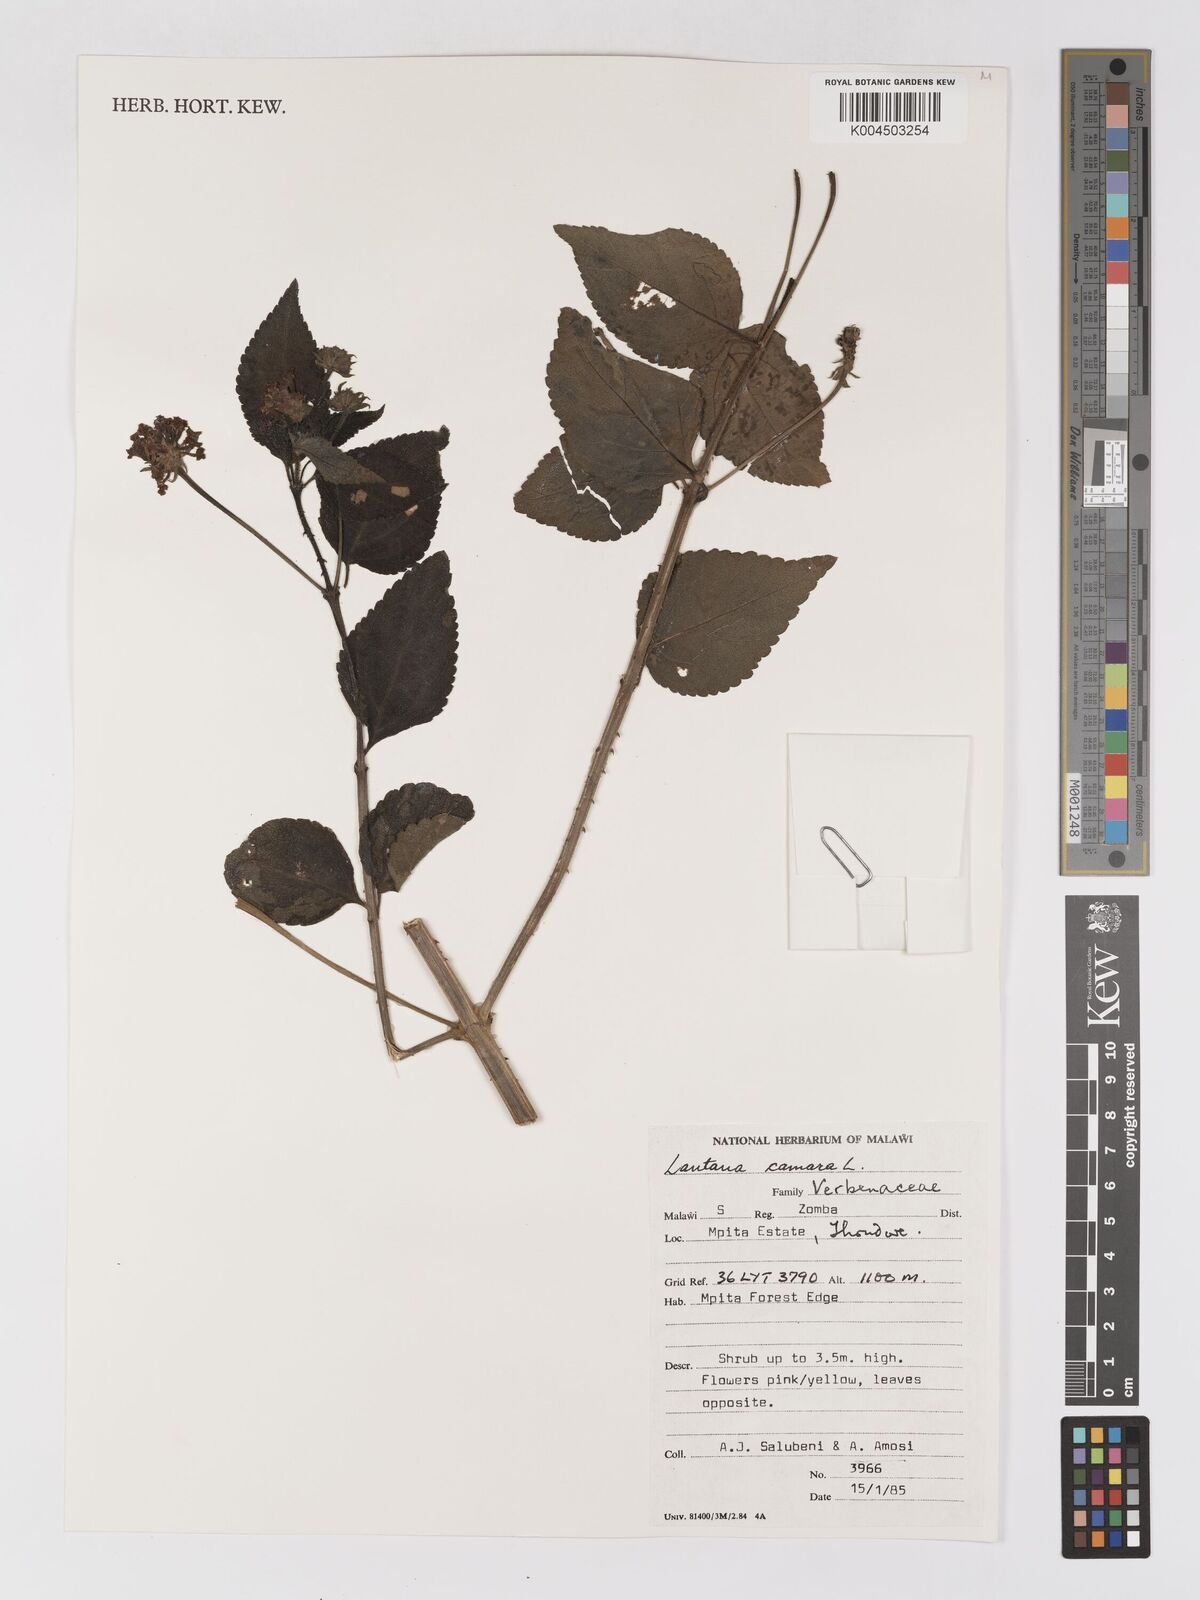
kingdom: Plantae
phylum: Tracheophyta
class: Magnoliopsida
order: Lamiales
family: Verbenaceae
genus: Lantana
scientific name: Lantana camara
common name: Lantana
